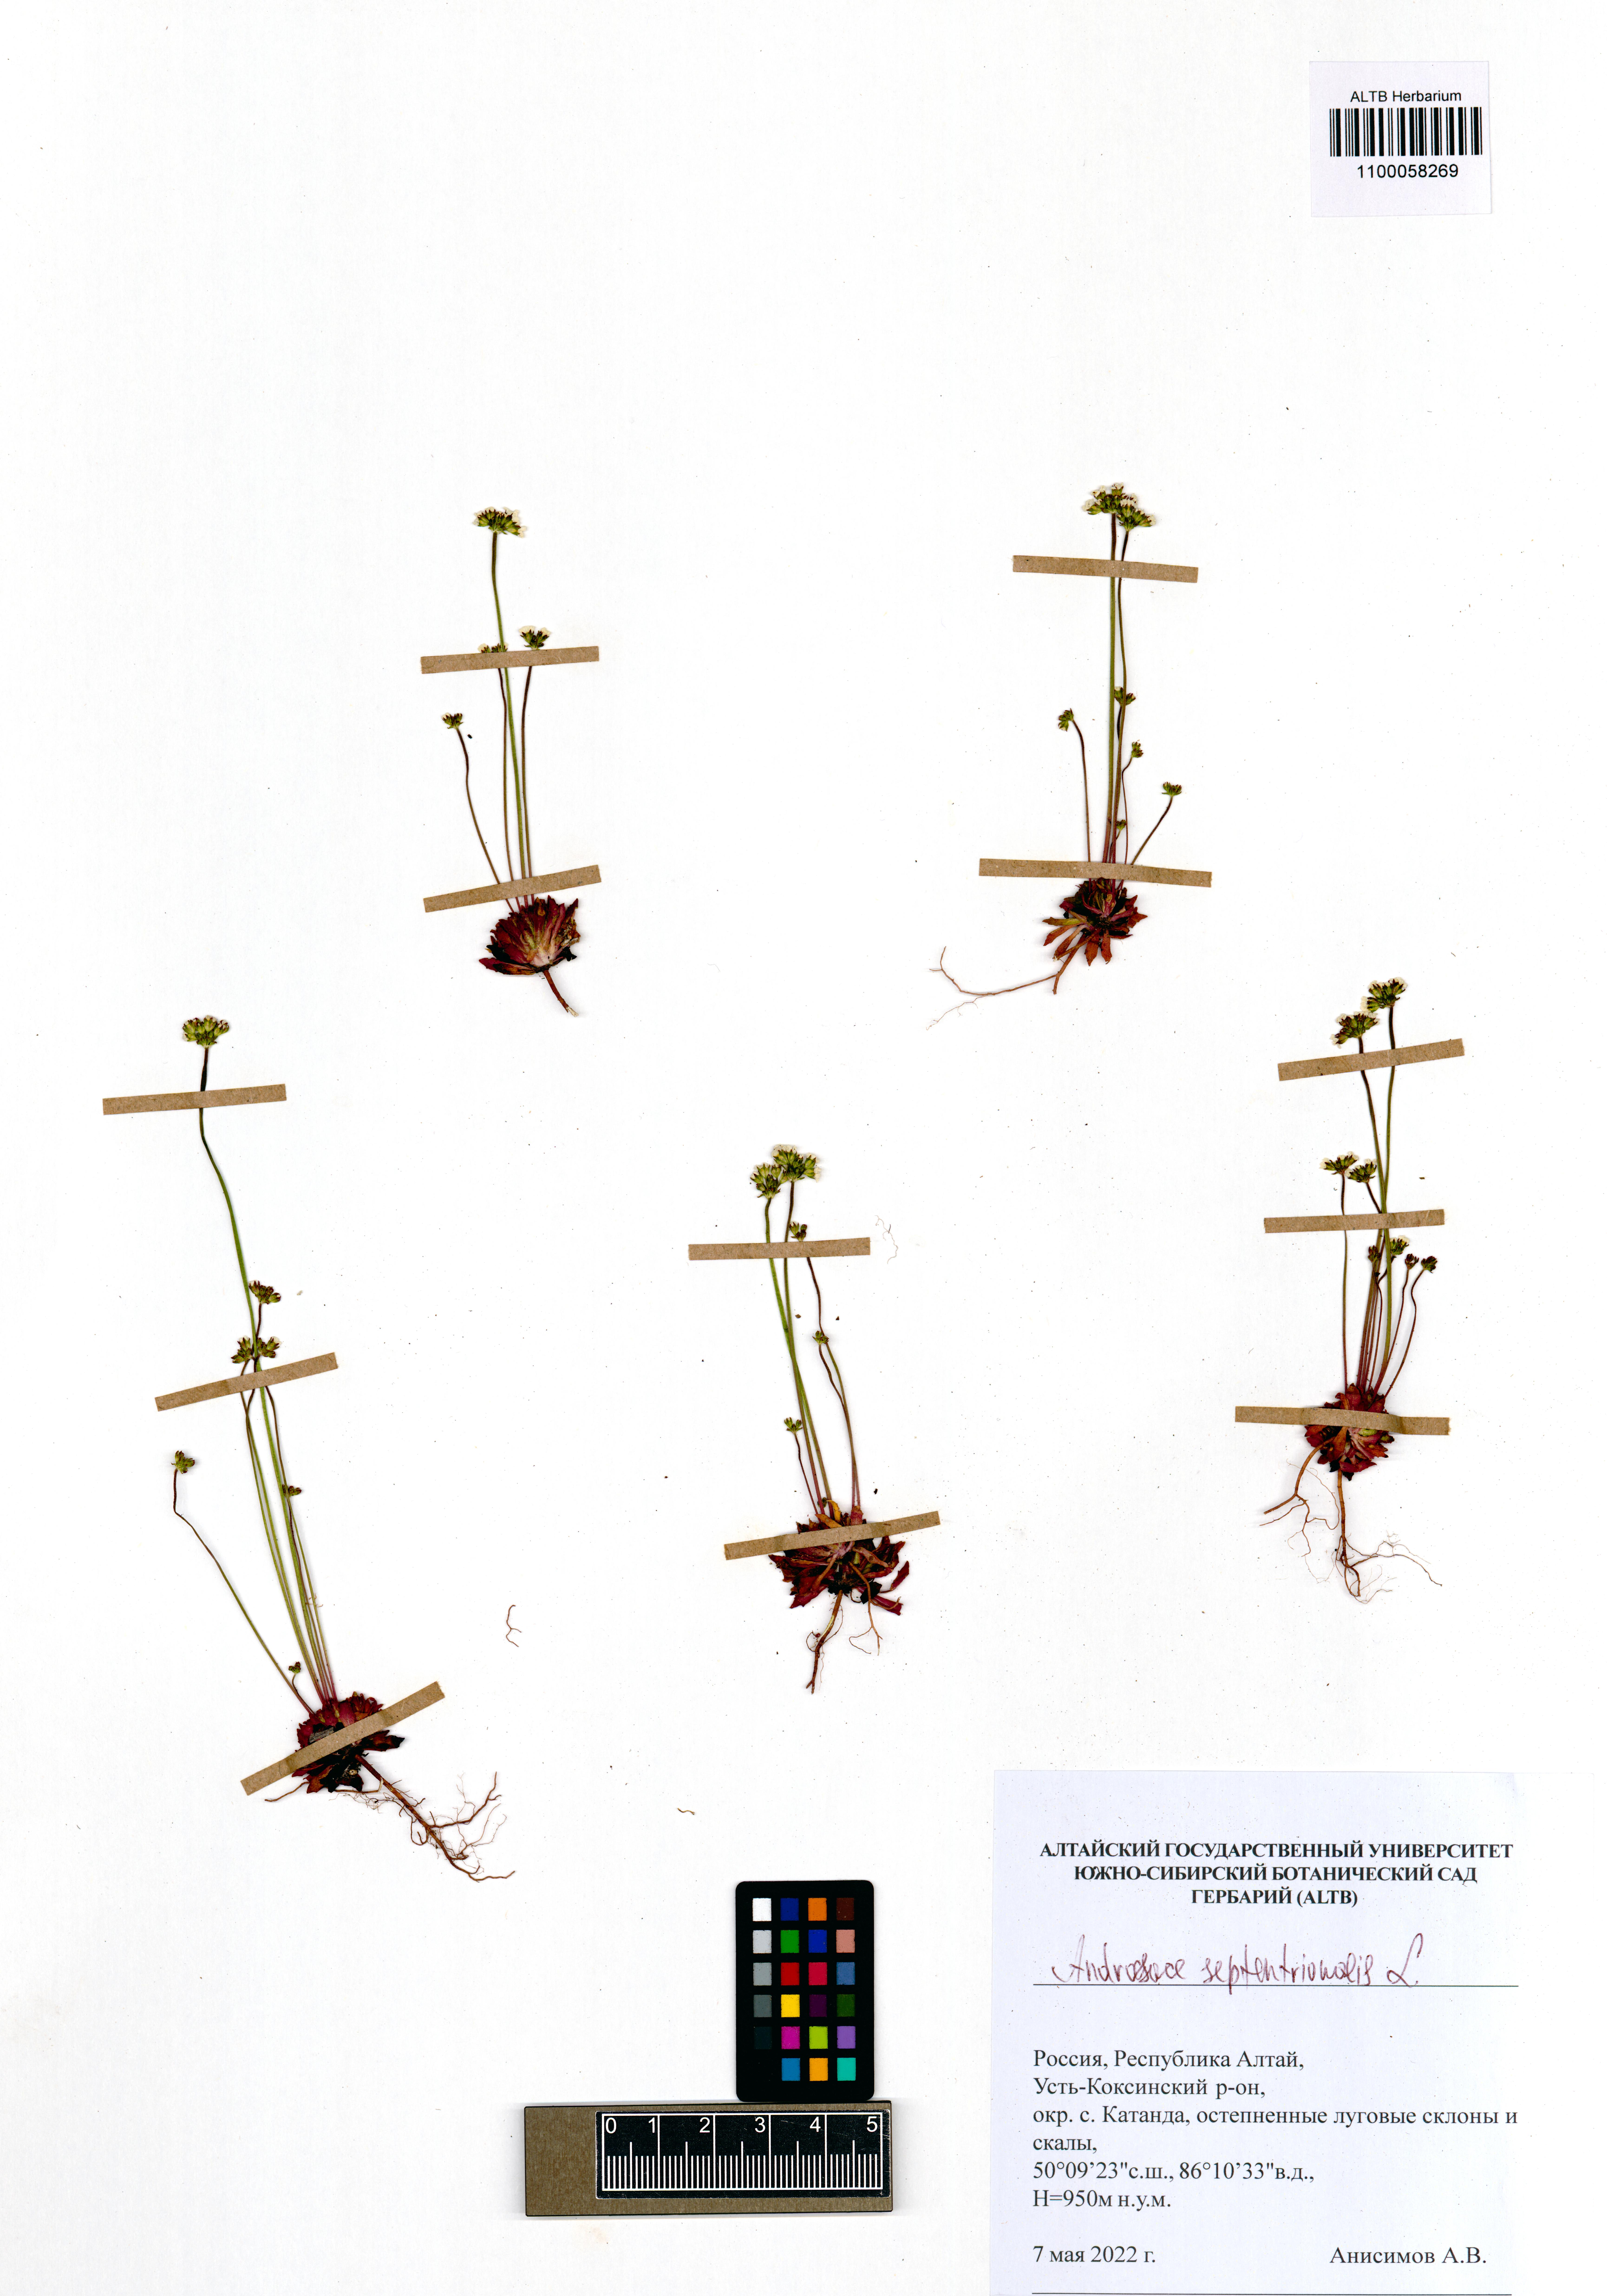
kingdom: Plantae
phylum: Tracheophyta
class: Magnoliopsida
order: Ericales
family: Primulaceae
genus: Androsace
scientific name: Androsace septentrionalis
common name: Hairy northern fairy-candelabra
